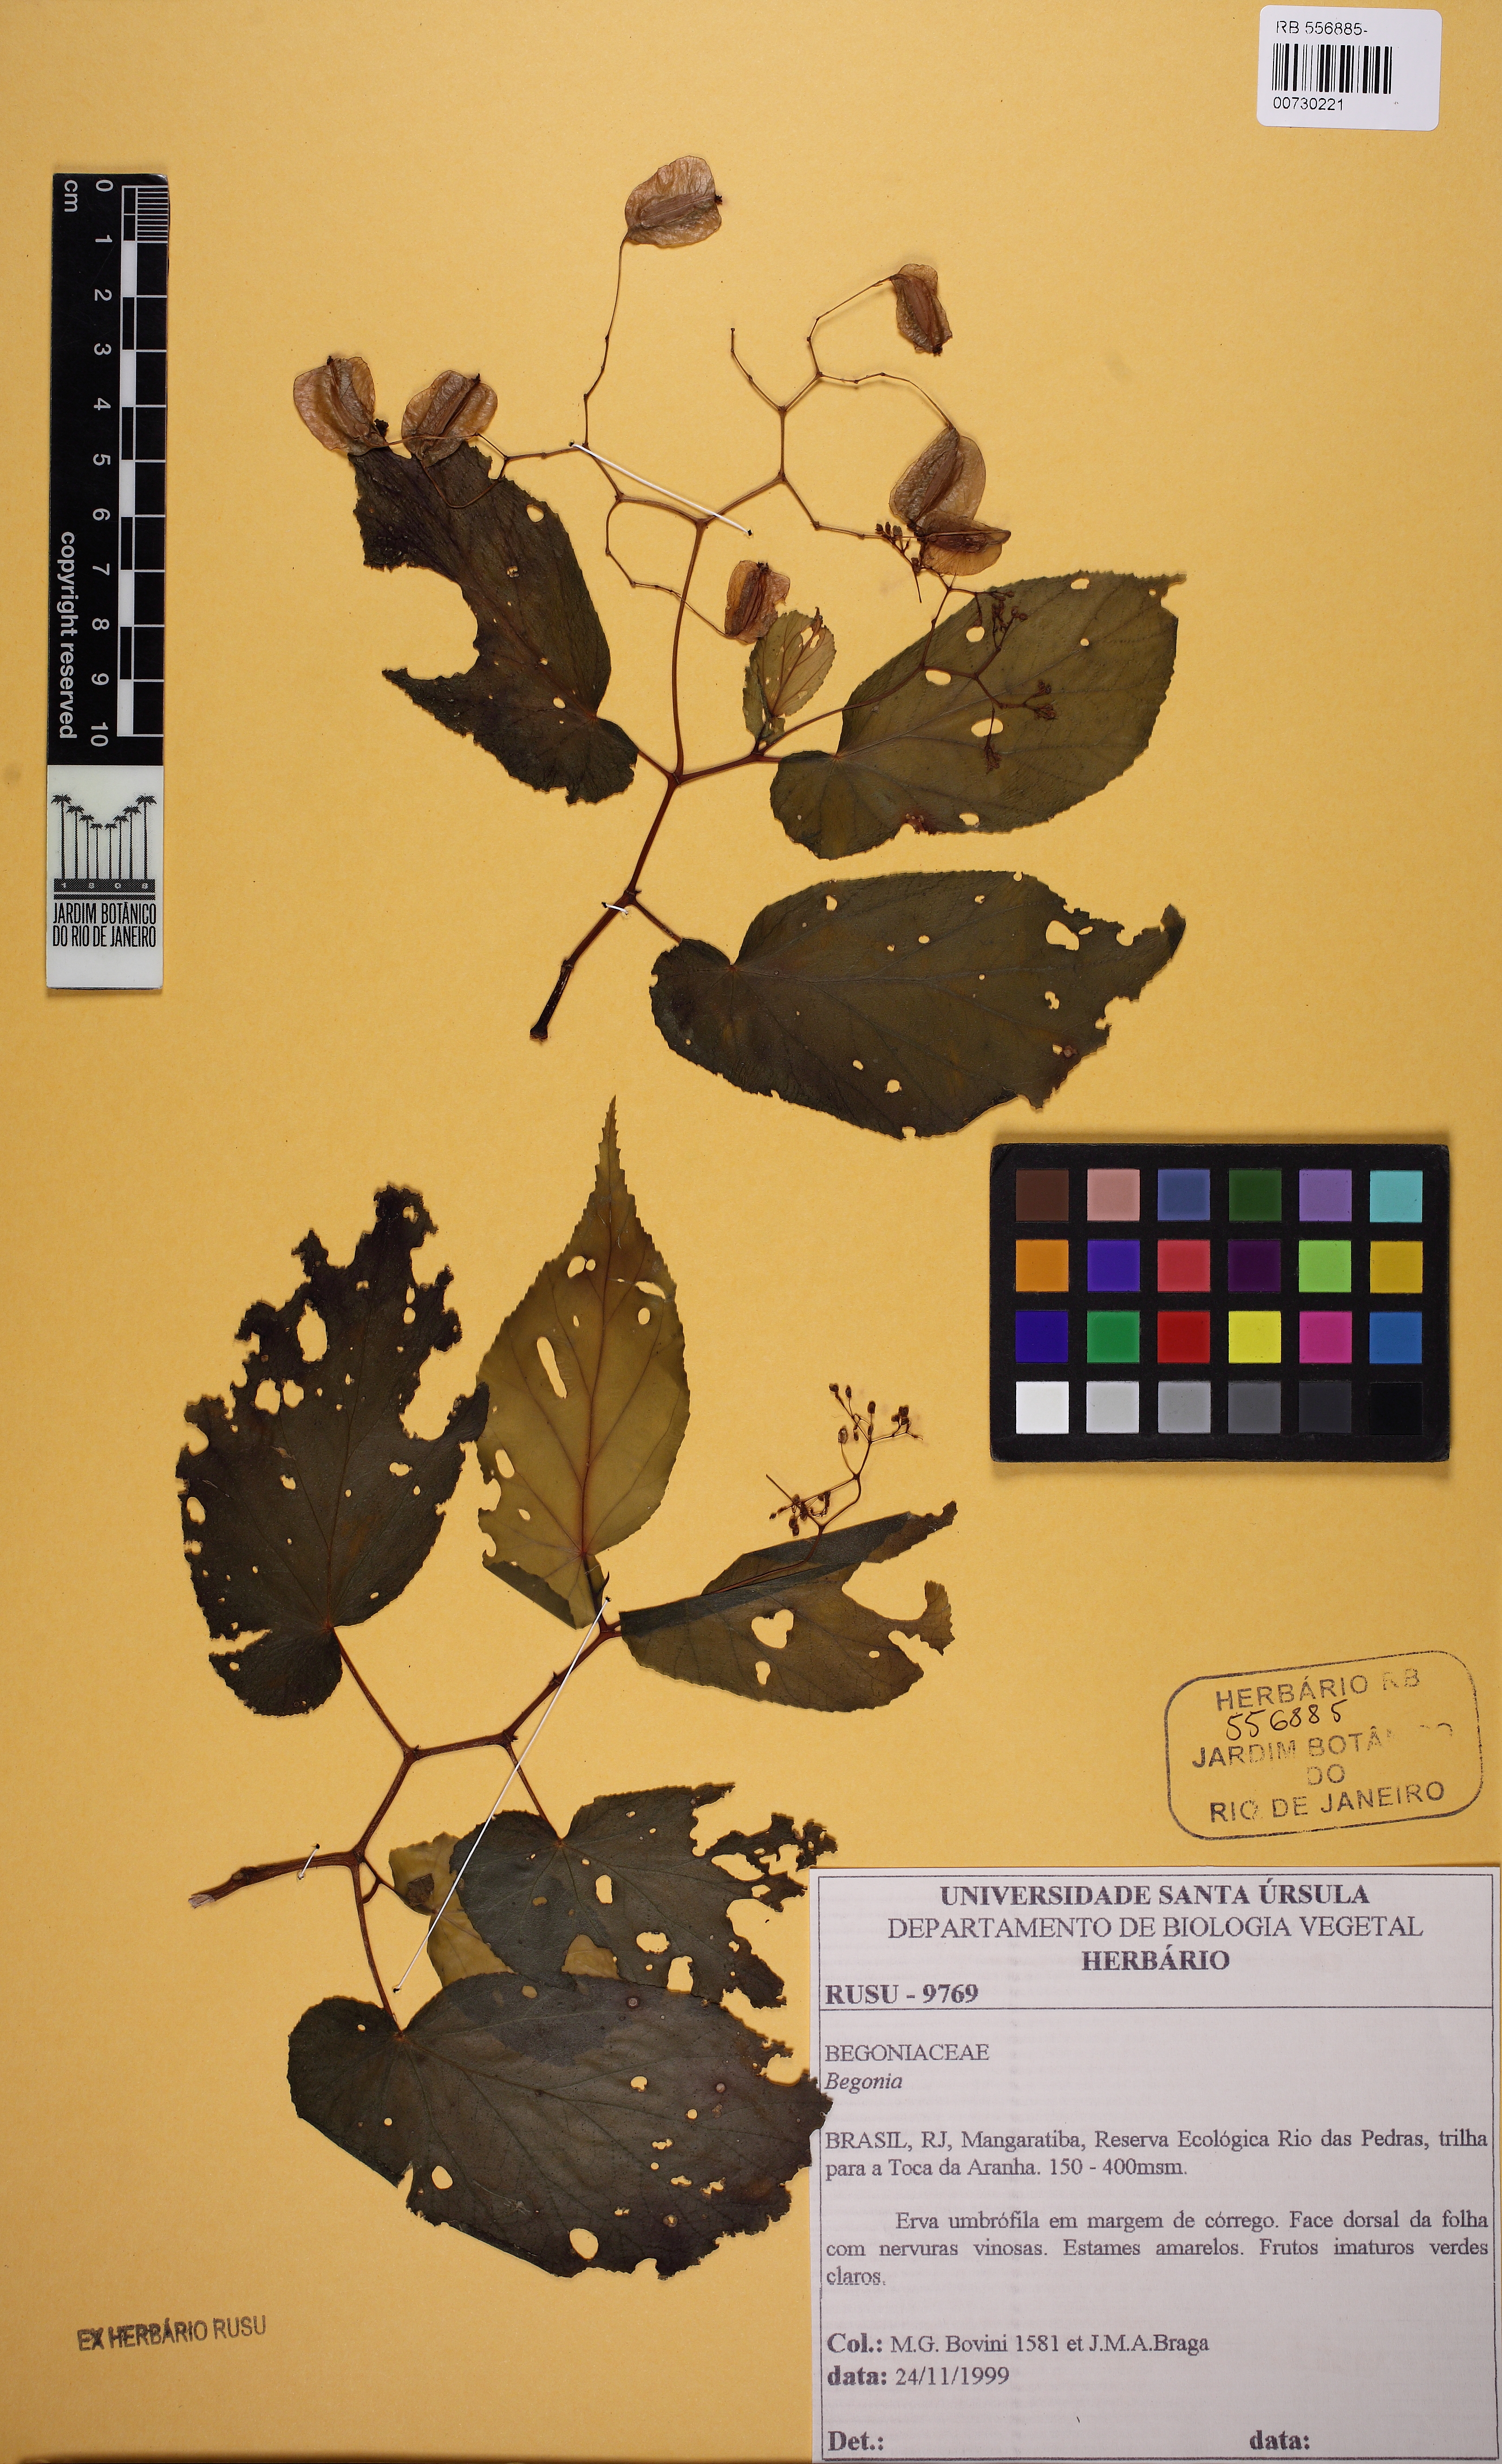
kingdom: Plantae
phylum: Tracheophyta
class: Magnoliopsida
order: Cucurbitales
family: Begoniaceae
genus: Begonia
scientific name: Begonia dietrichiana
